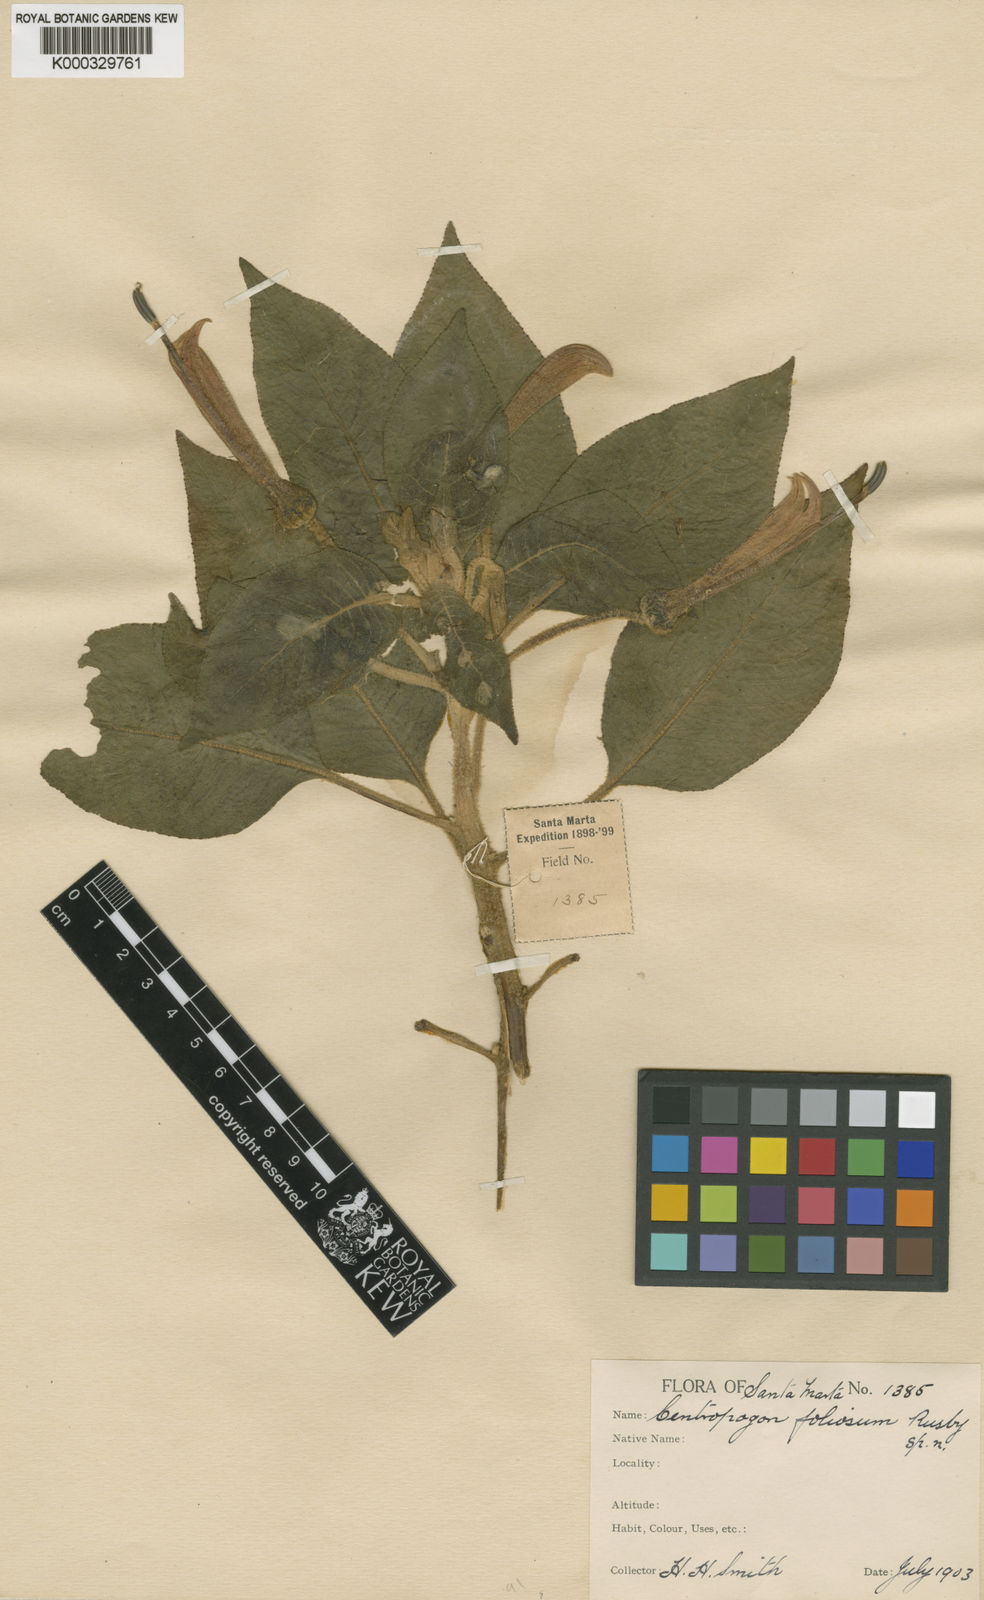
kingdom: Plantae
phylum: Tracheophyta
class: Magnoliopsida
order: Asterales
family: Campanulaceae
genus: Centropogon
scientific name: Centropogon foliosus
